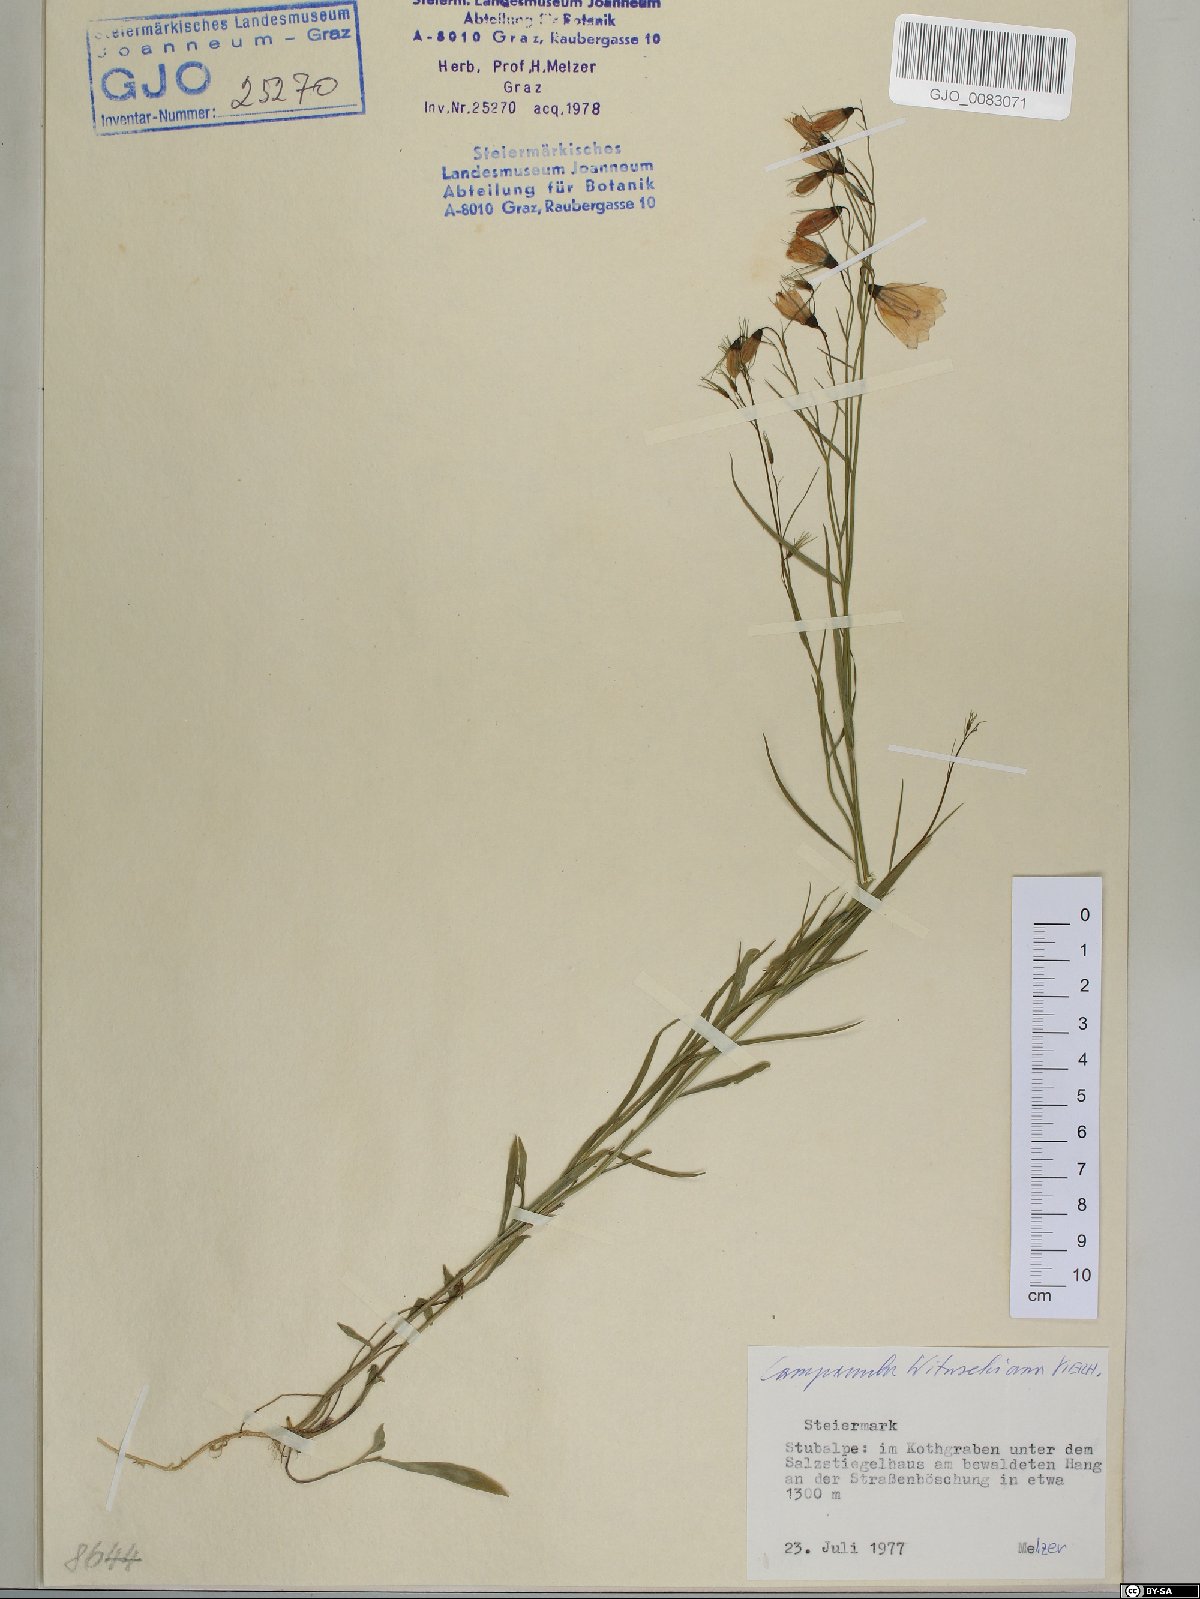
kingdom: Plantae
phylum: Tracheophyta
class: Magnoliopsida
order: Asterales
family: Campanulaceae
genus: Campanula
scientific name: Campanula witasekiana
